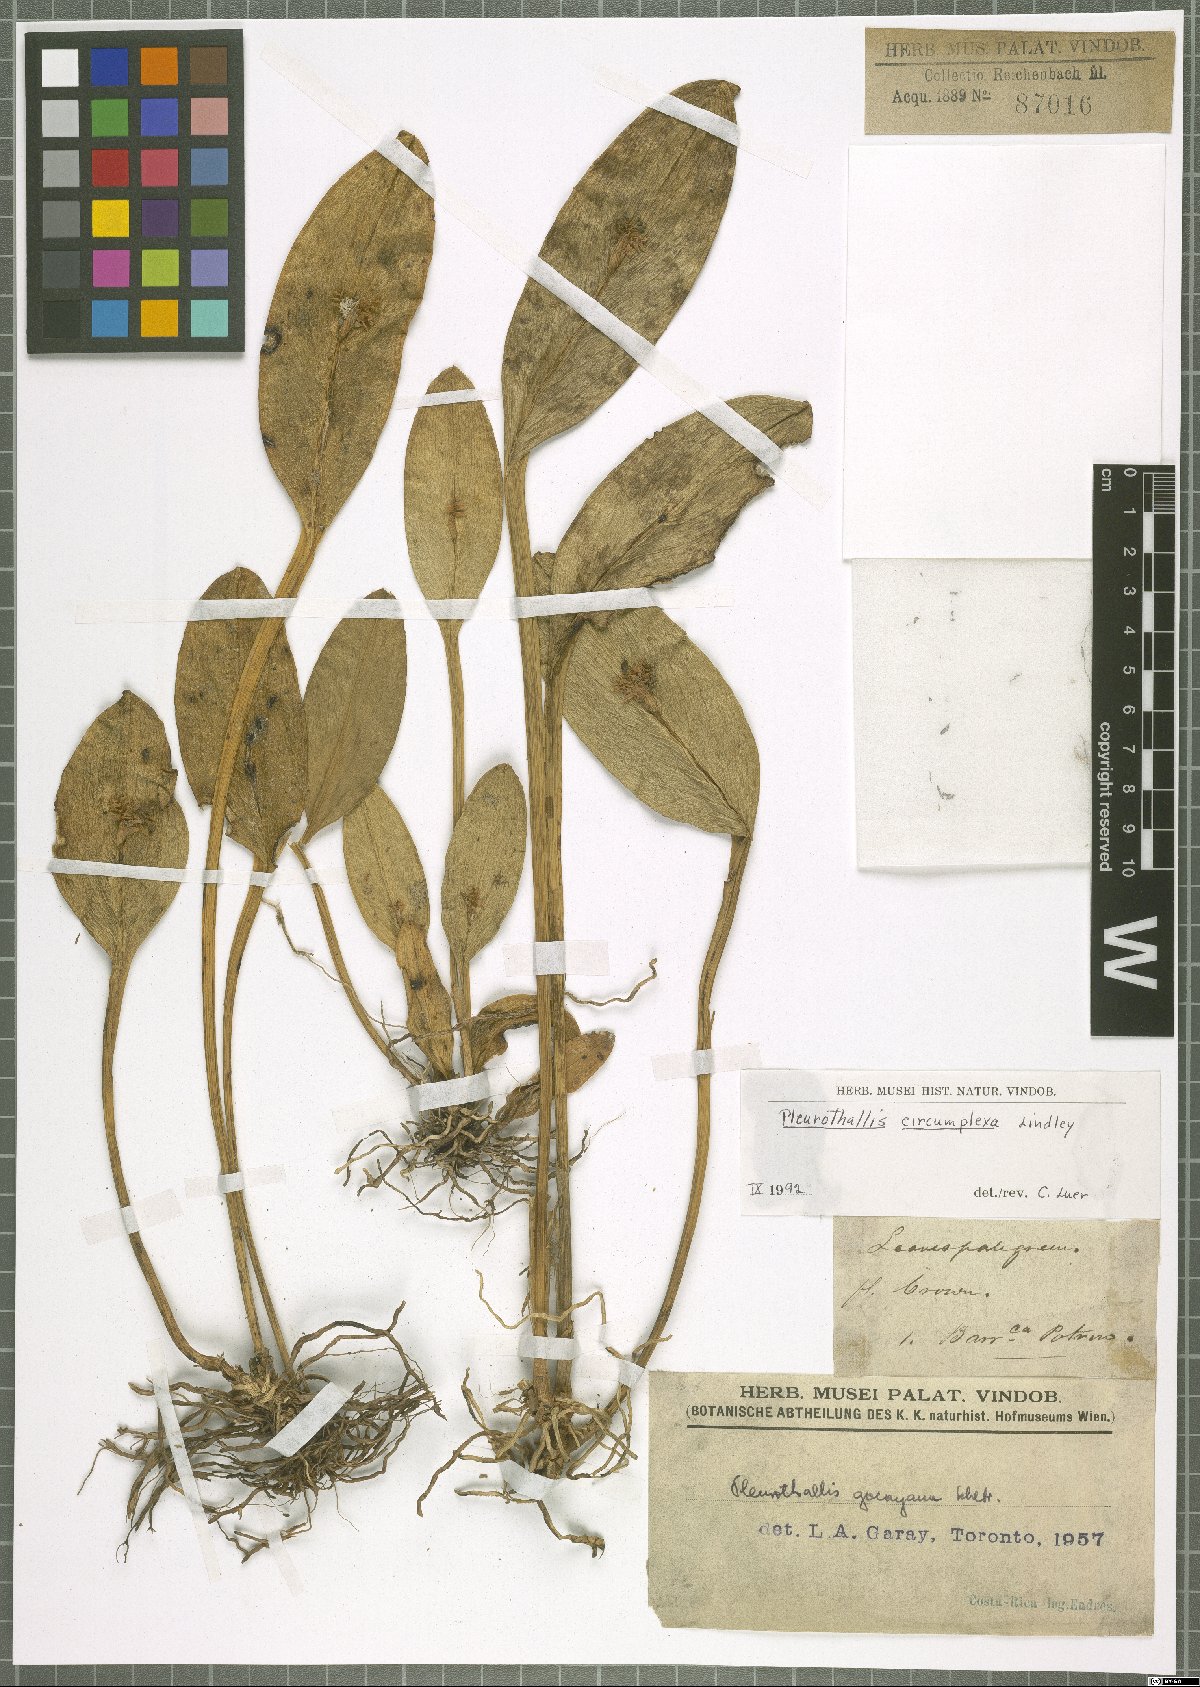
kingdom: Plantae
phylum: Tracheophyta
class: Liliopsida
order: Asparagales
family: Orchidaceae
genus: Acianthera
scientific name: Acianthera circumplexa
